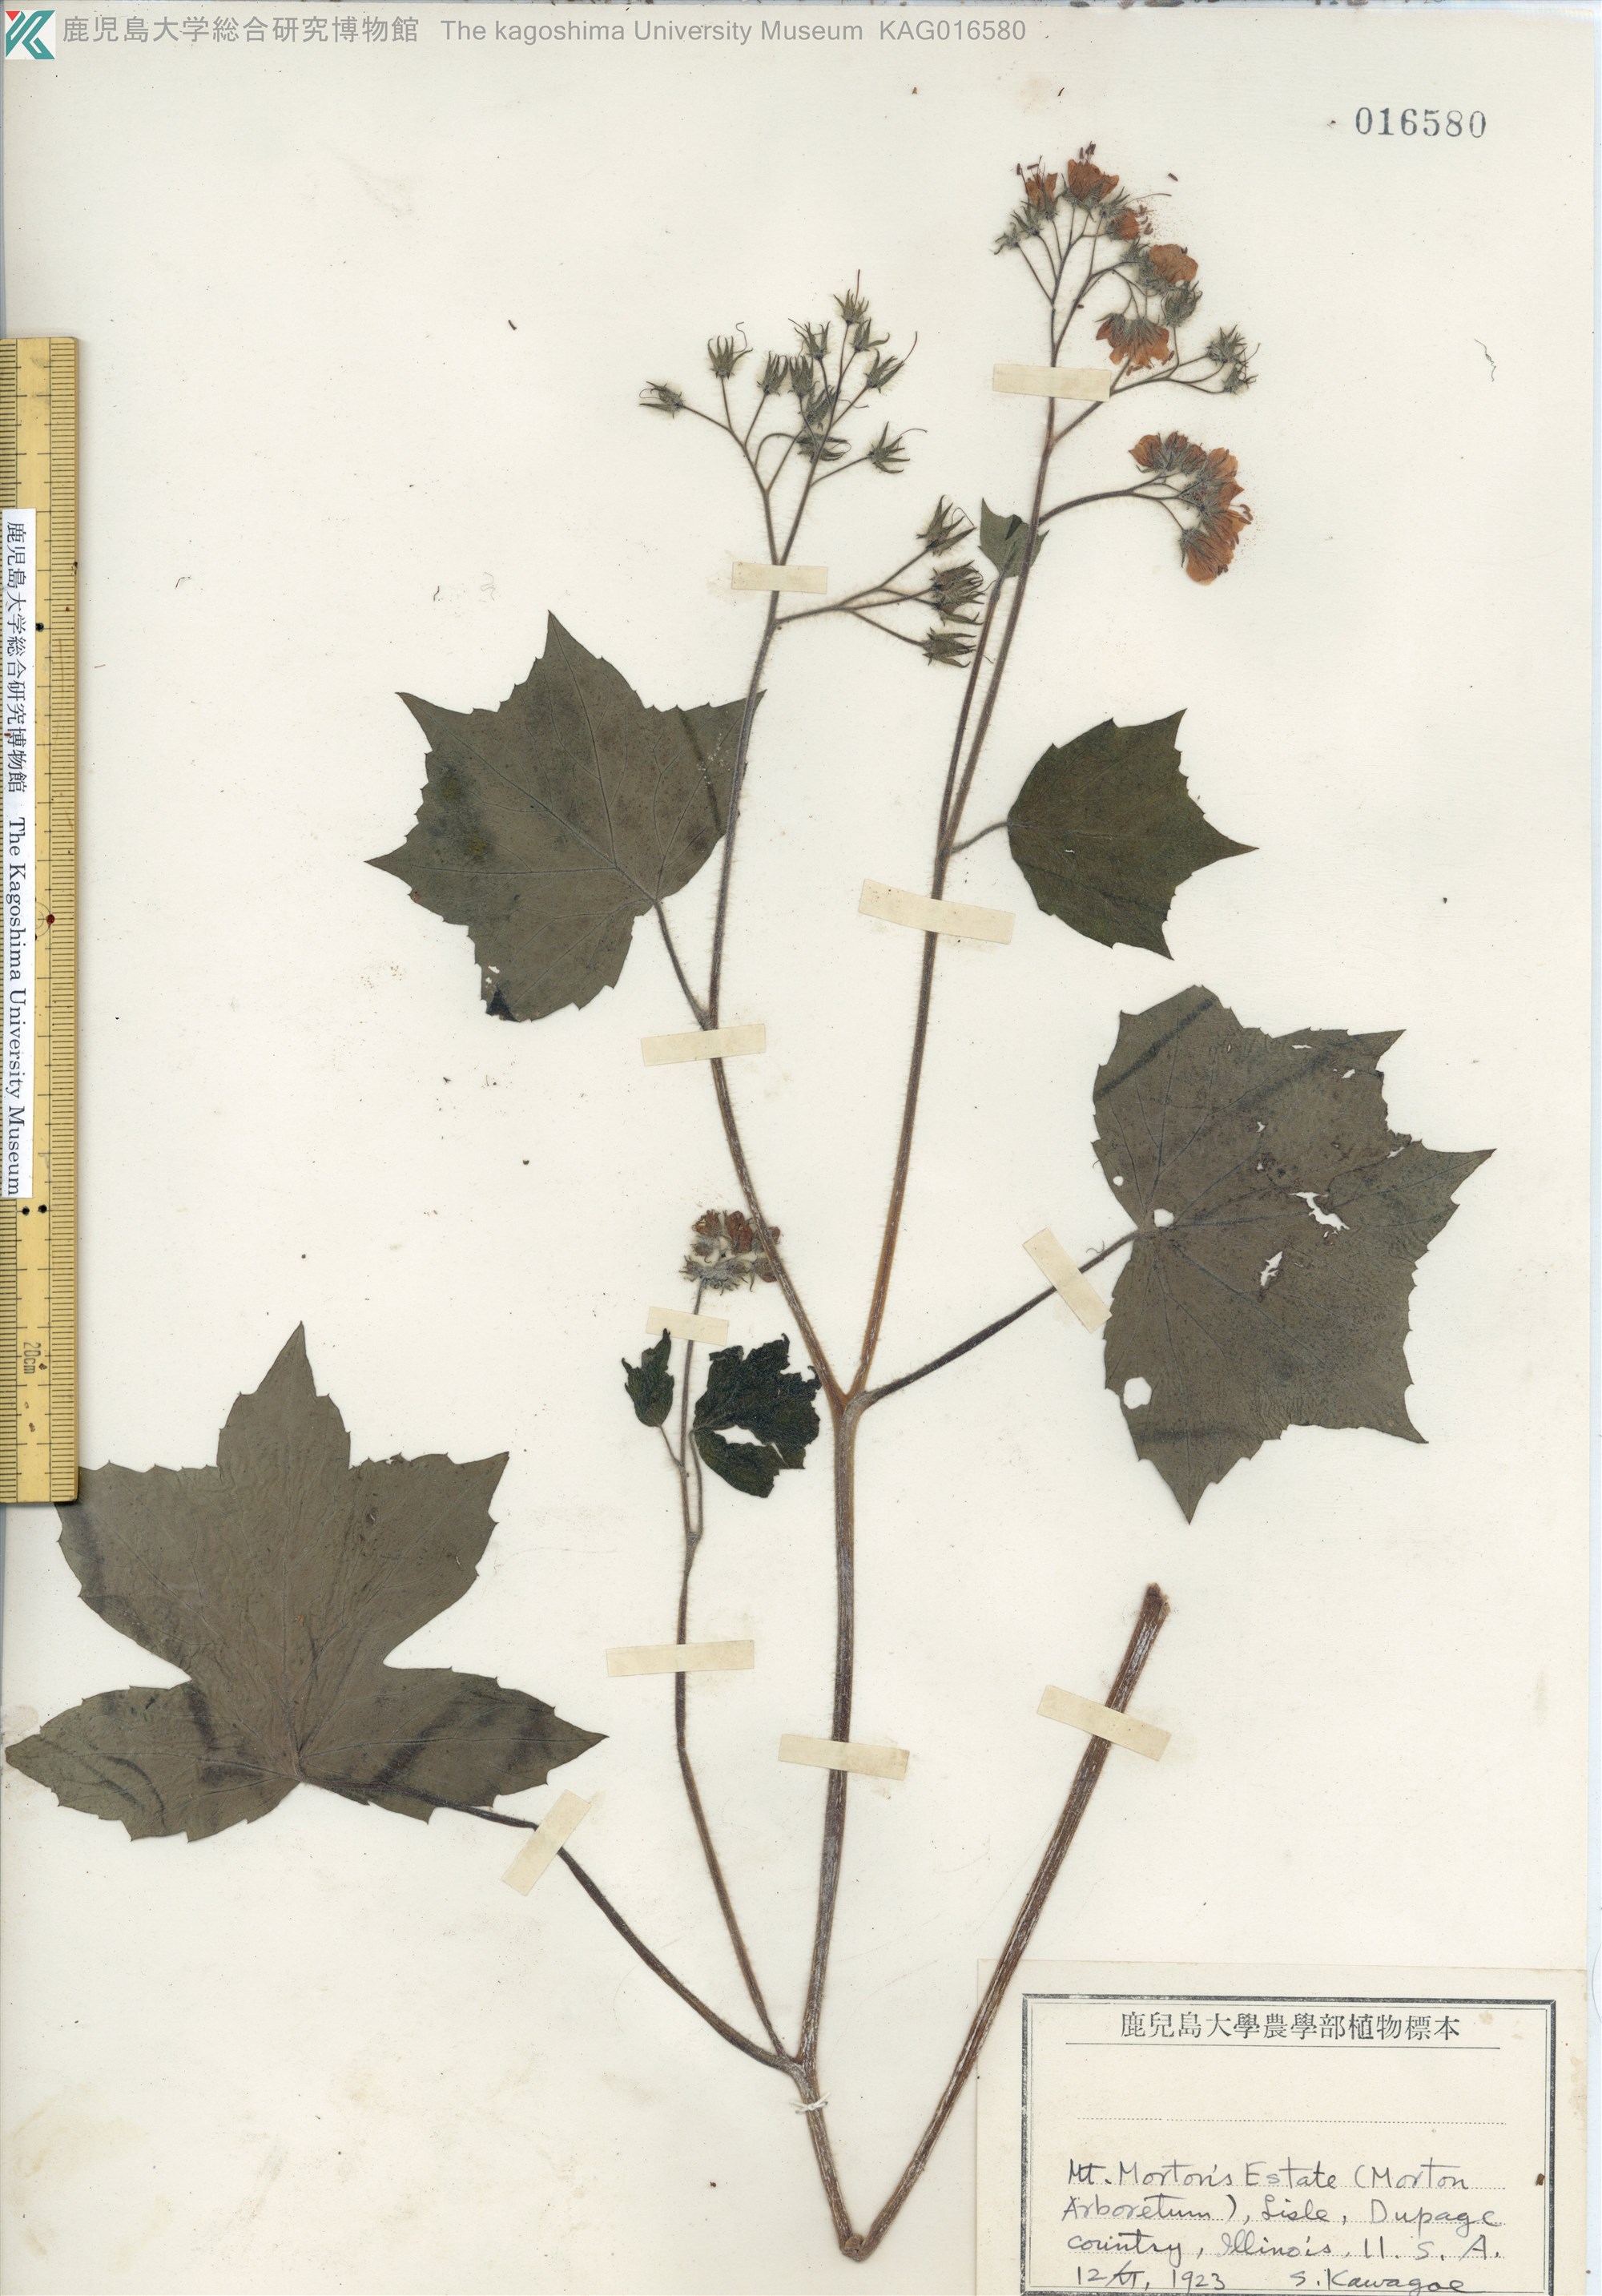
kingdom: Plantae
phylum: Tracheophyta
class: Magnoliopsida
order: Boraginales
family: Hydrophyllaceae
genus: Hydrophyllum
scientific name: Hydrophyllum virginianum
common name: Virginia waterleaf
